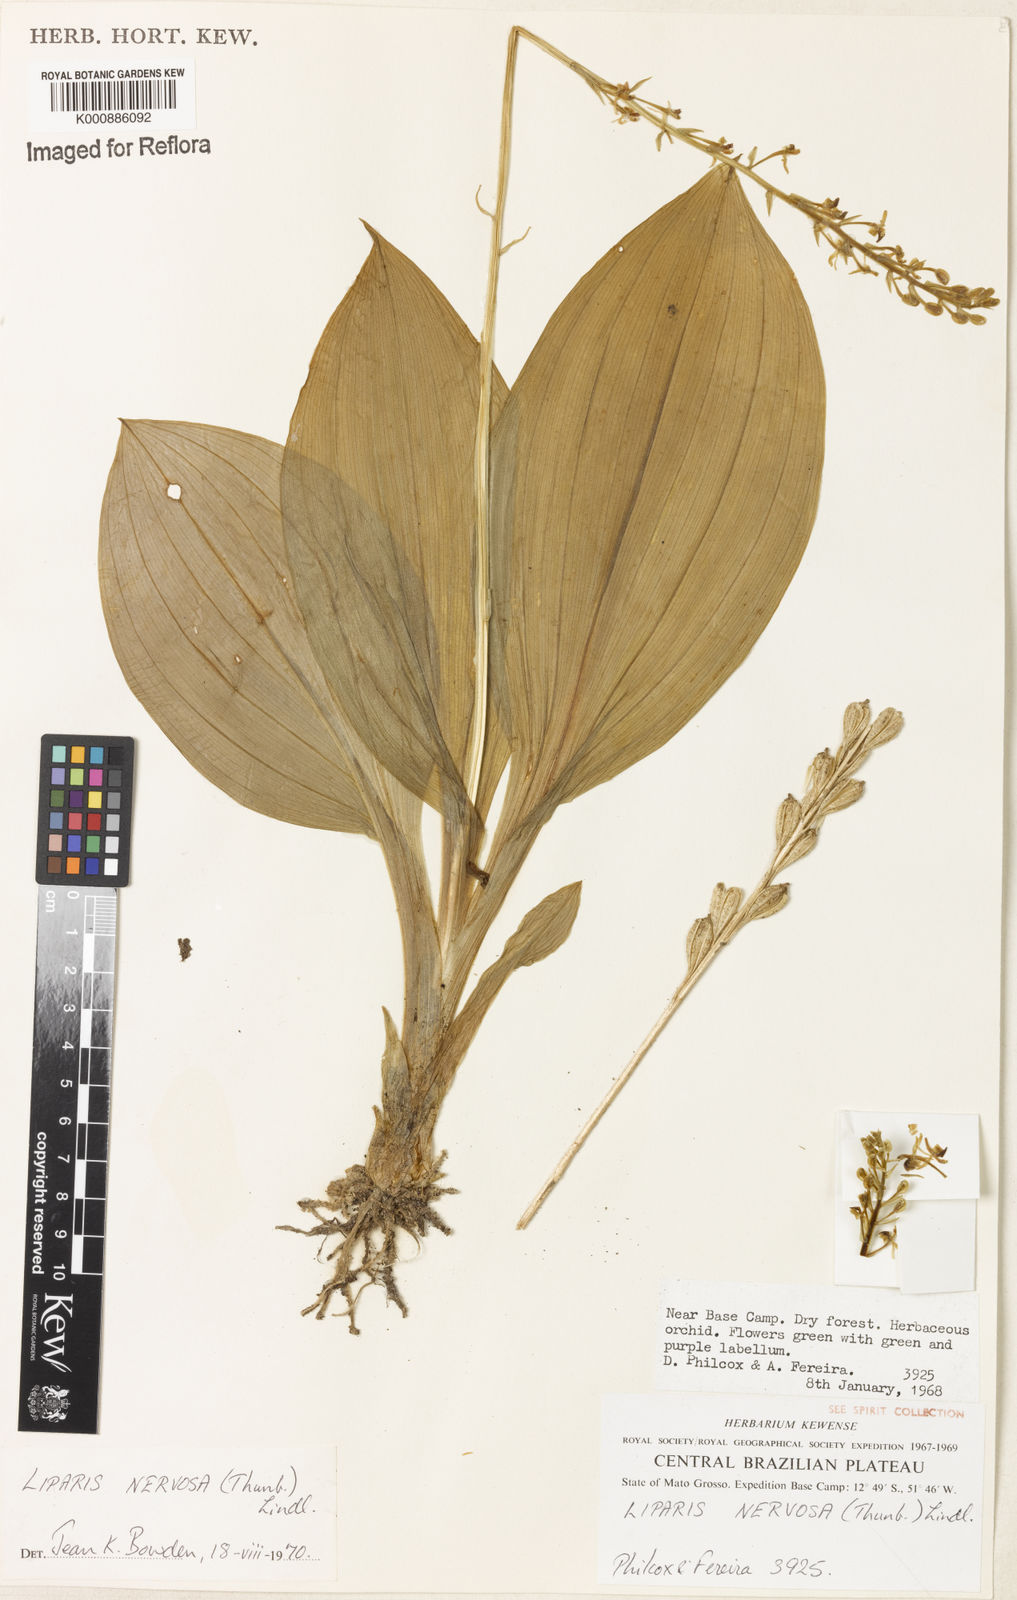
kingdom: Plantae
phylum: Tracheophyta
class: Liliopsida
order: Asparagales
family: Orchidaceae
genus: Liparis
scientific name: Liparis nervosa
